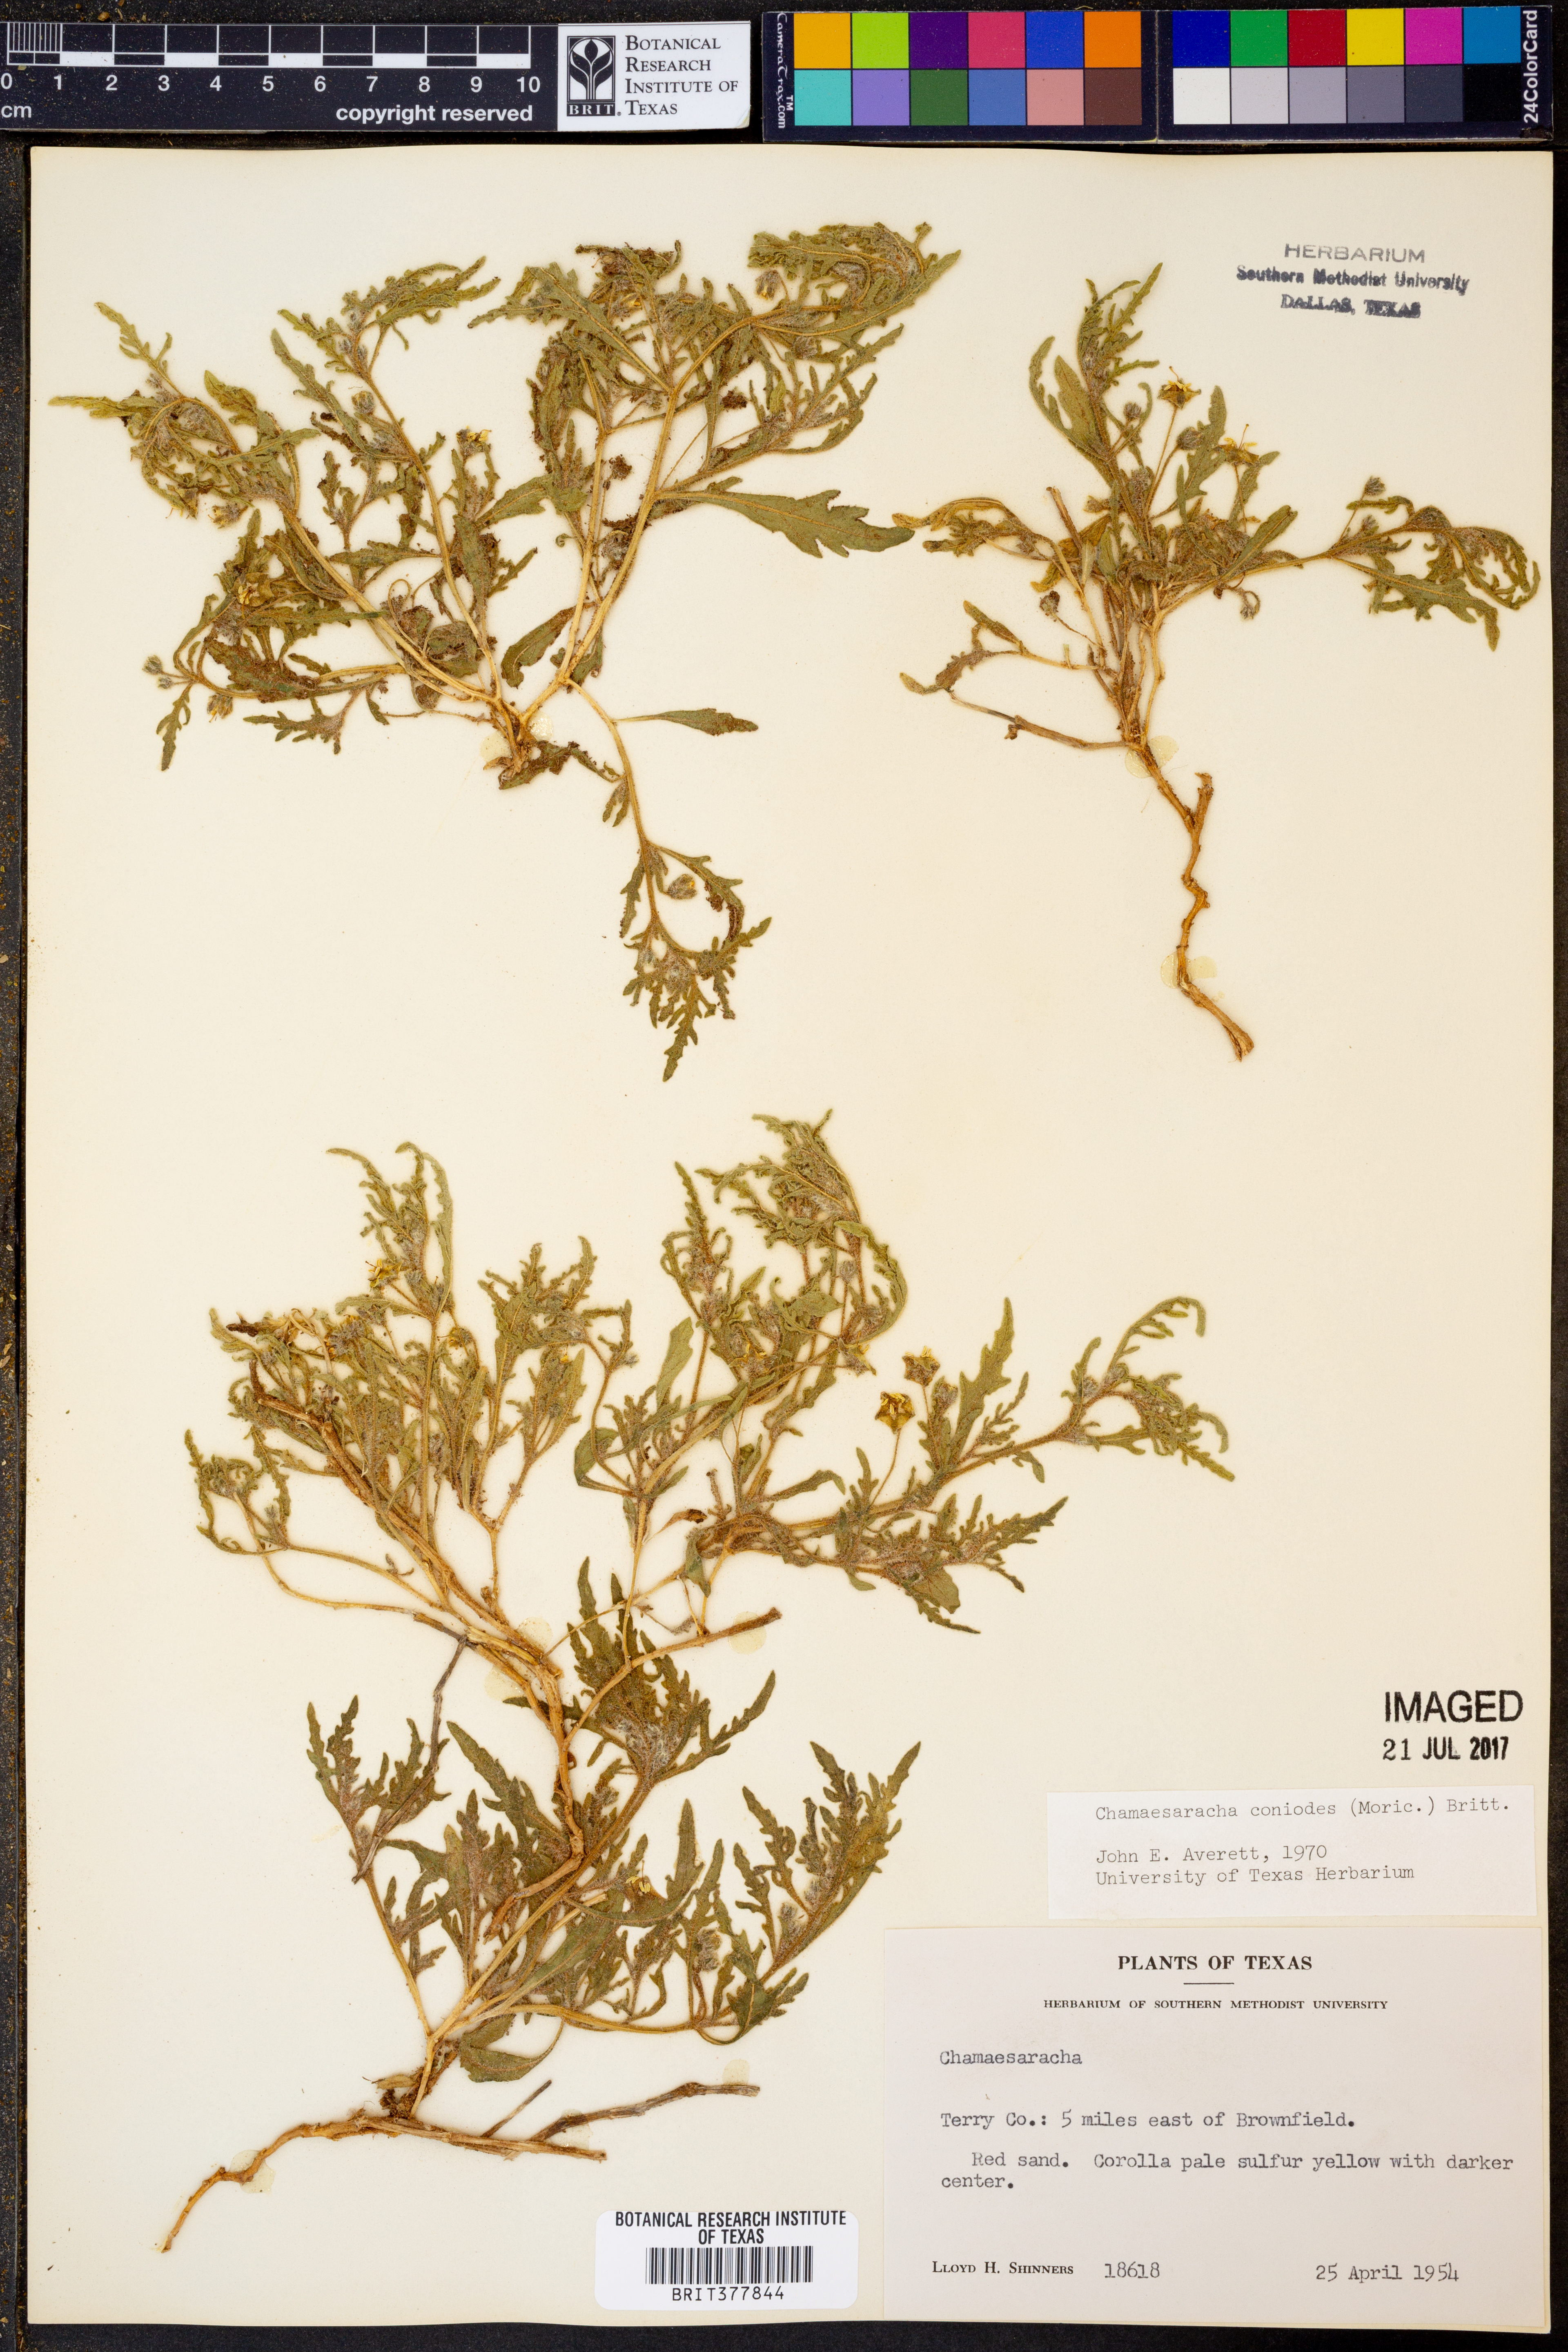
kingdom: Plantae
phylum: Tracheophyta
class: Magnoliopsida
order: Solanales
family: Solanaceae
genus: Chamaesaracha
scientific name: Chamaesaracha coniodes
